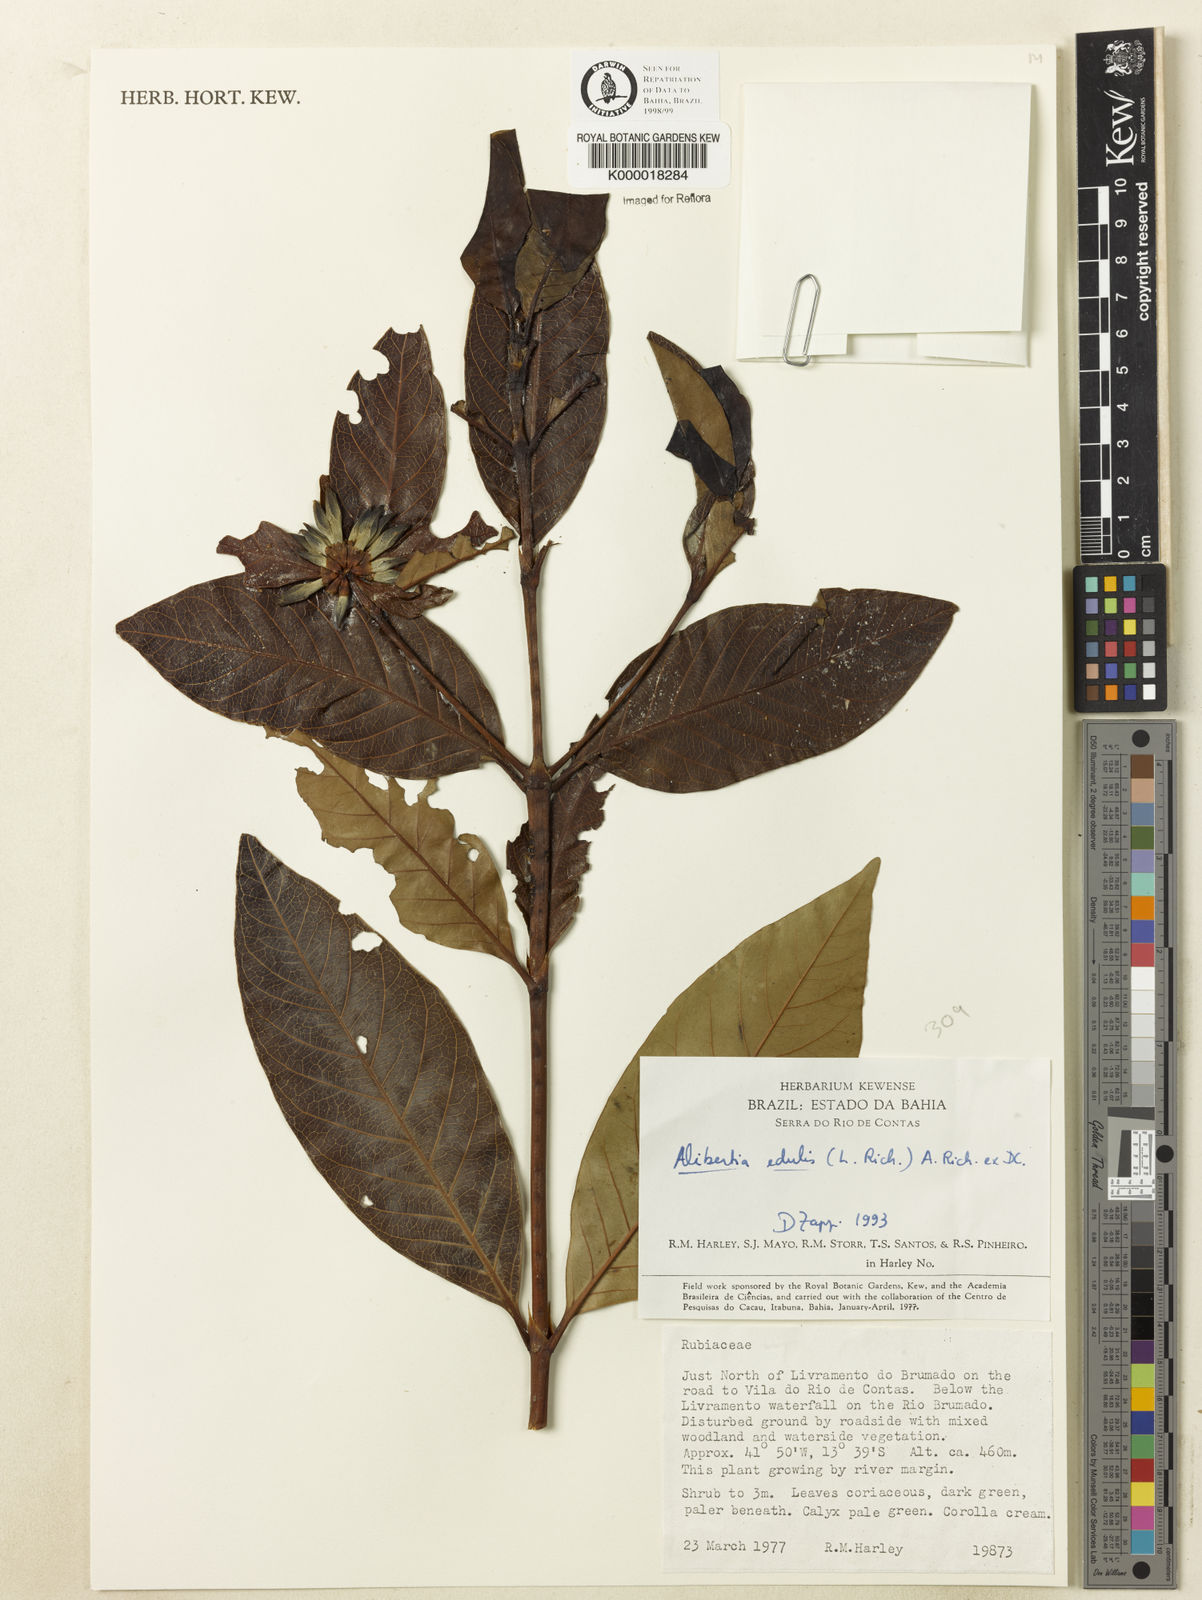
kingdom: Plantae
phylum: Tracheophyta
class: Magnoliopsida
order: Gentianales
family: Rubiaceae
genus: Alibertia
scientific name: Alibertia edulis
